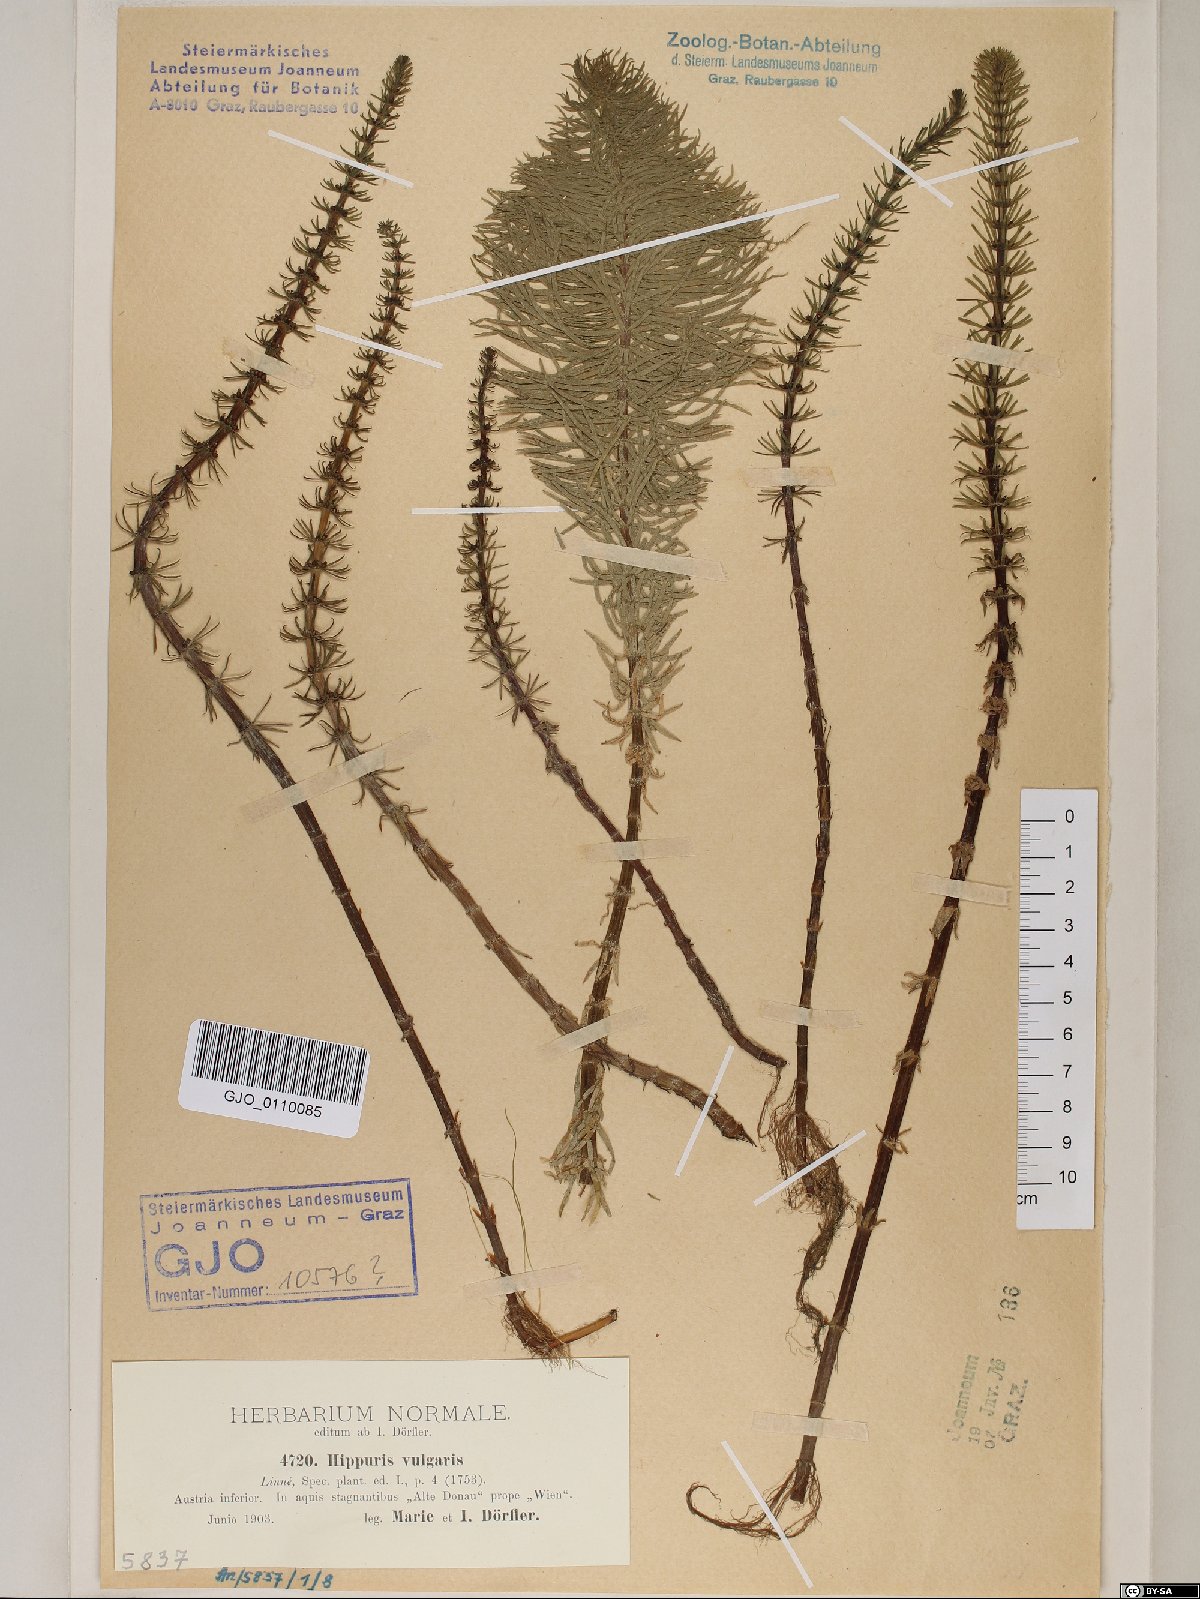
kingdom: Plantae
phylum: Tracheophyta
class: Magnoliopsida
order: Lamiales
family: Plantaginaceae
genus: Hippuris
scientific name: Hippuris vulgaris
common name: Mare's-tail
